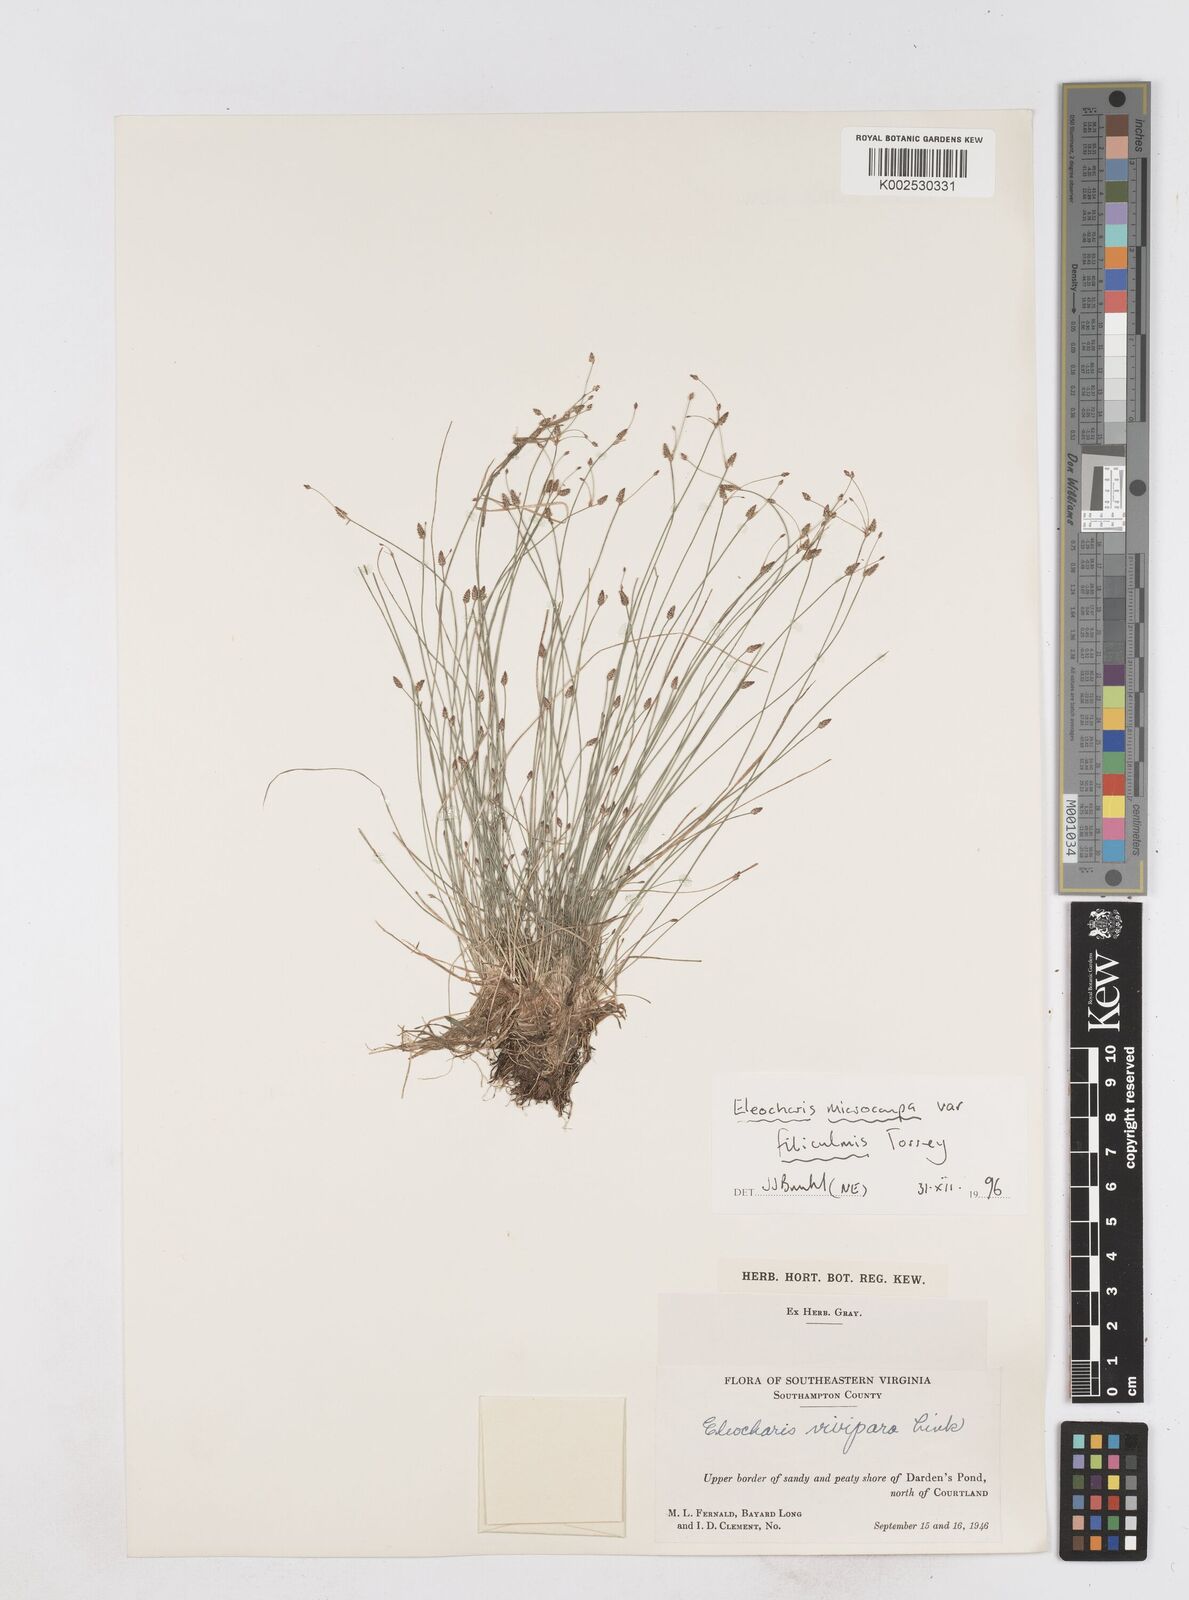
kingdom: Plantae
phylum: Tracheophyta
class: Liliopsida
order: Poales
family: Cyperaceae
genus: Eleocharis
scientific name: Eleocharis microcarpa
